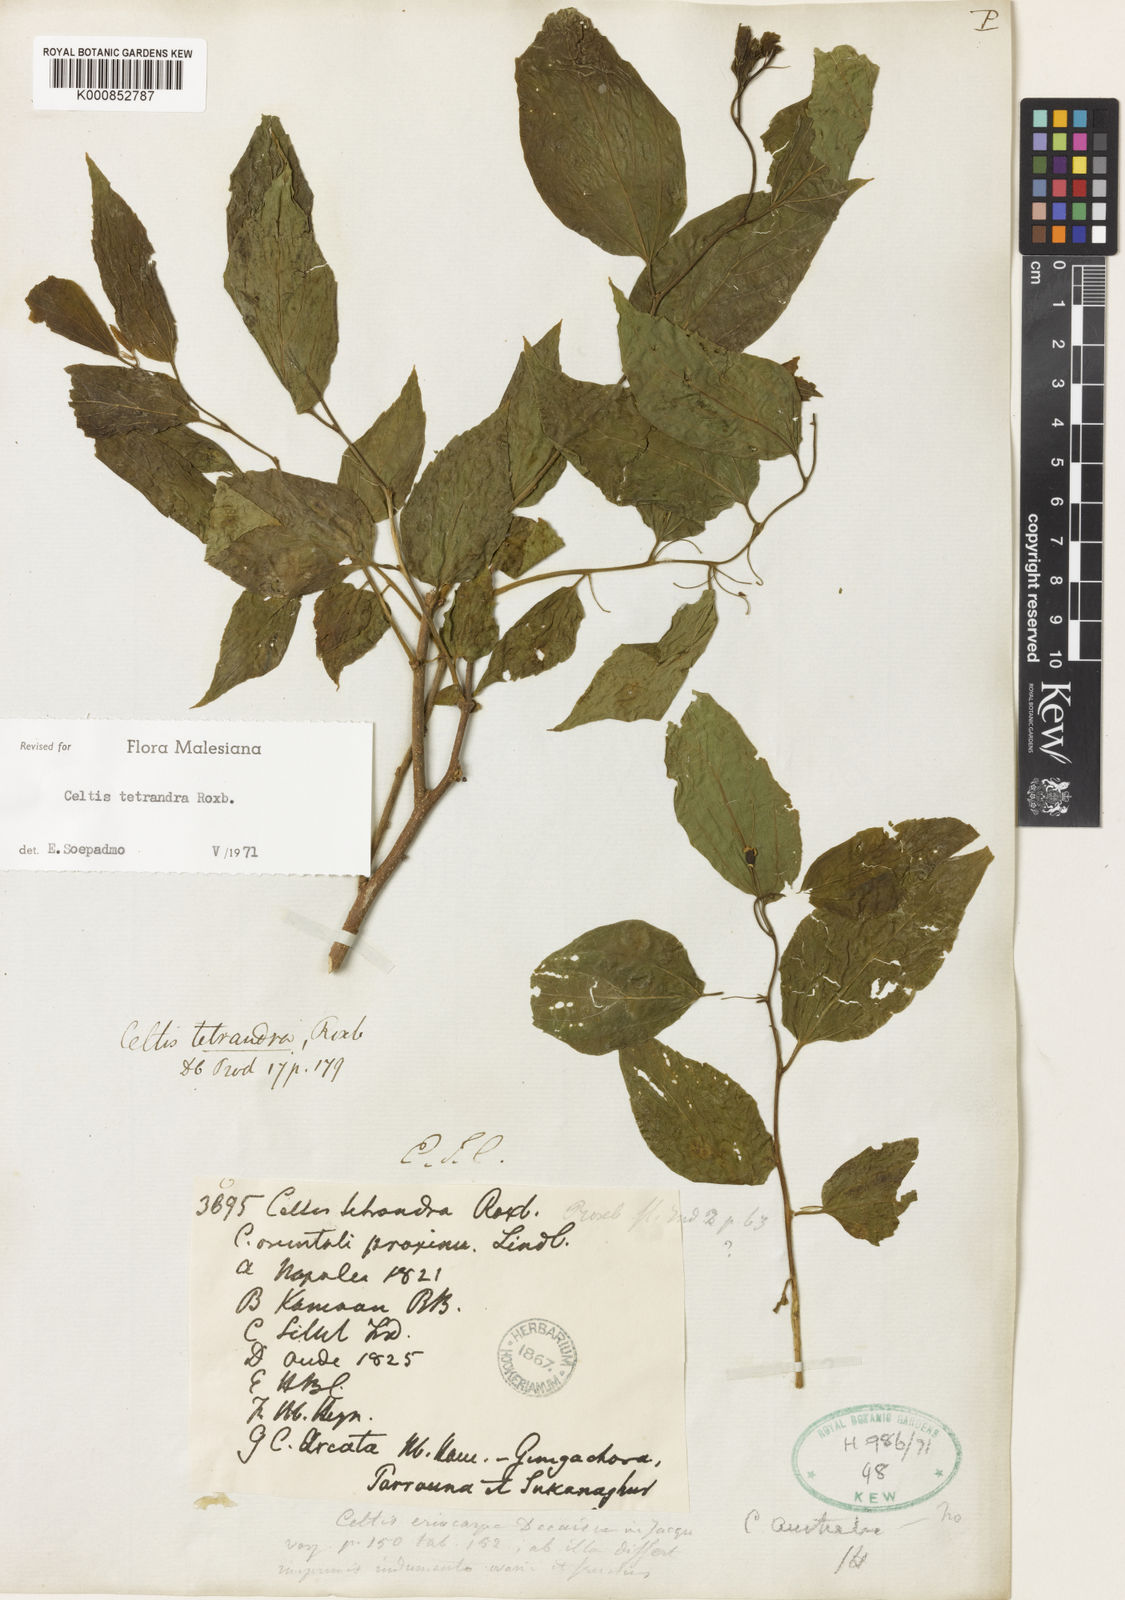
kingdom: Plantae
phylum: Tracheophyta
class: Magnoliopsida
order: Rosales
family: Cannabaceae
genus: Celtis
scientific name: Celtis tetrandra
